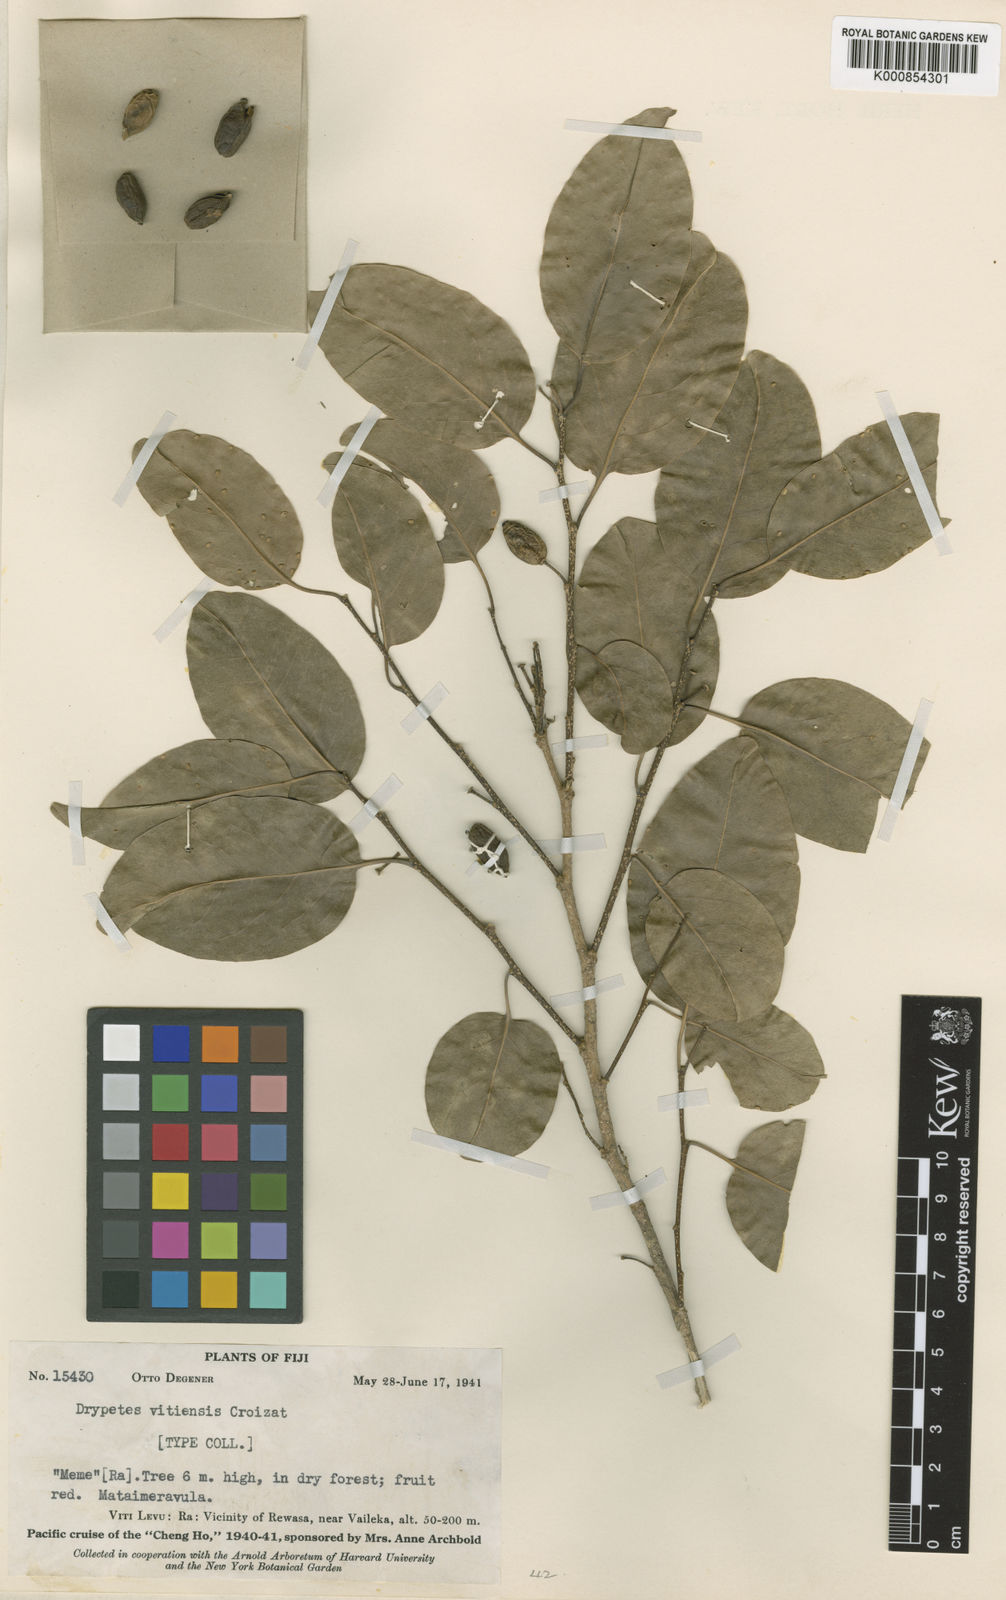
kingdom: Plantae
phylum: Tracheophyta
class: Magnoliopsida
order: Malpighiales
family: Putranjivaceae
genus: Drypetes
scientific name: Drypetes vitiensis
